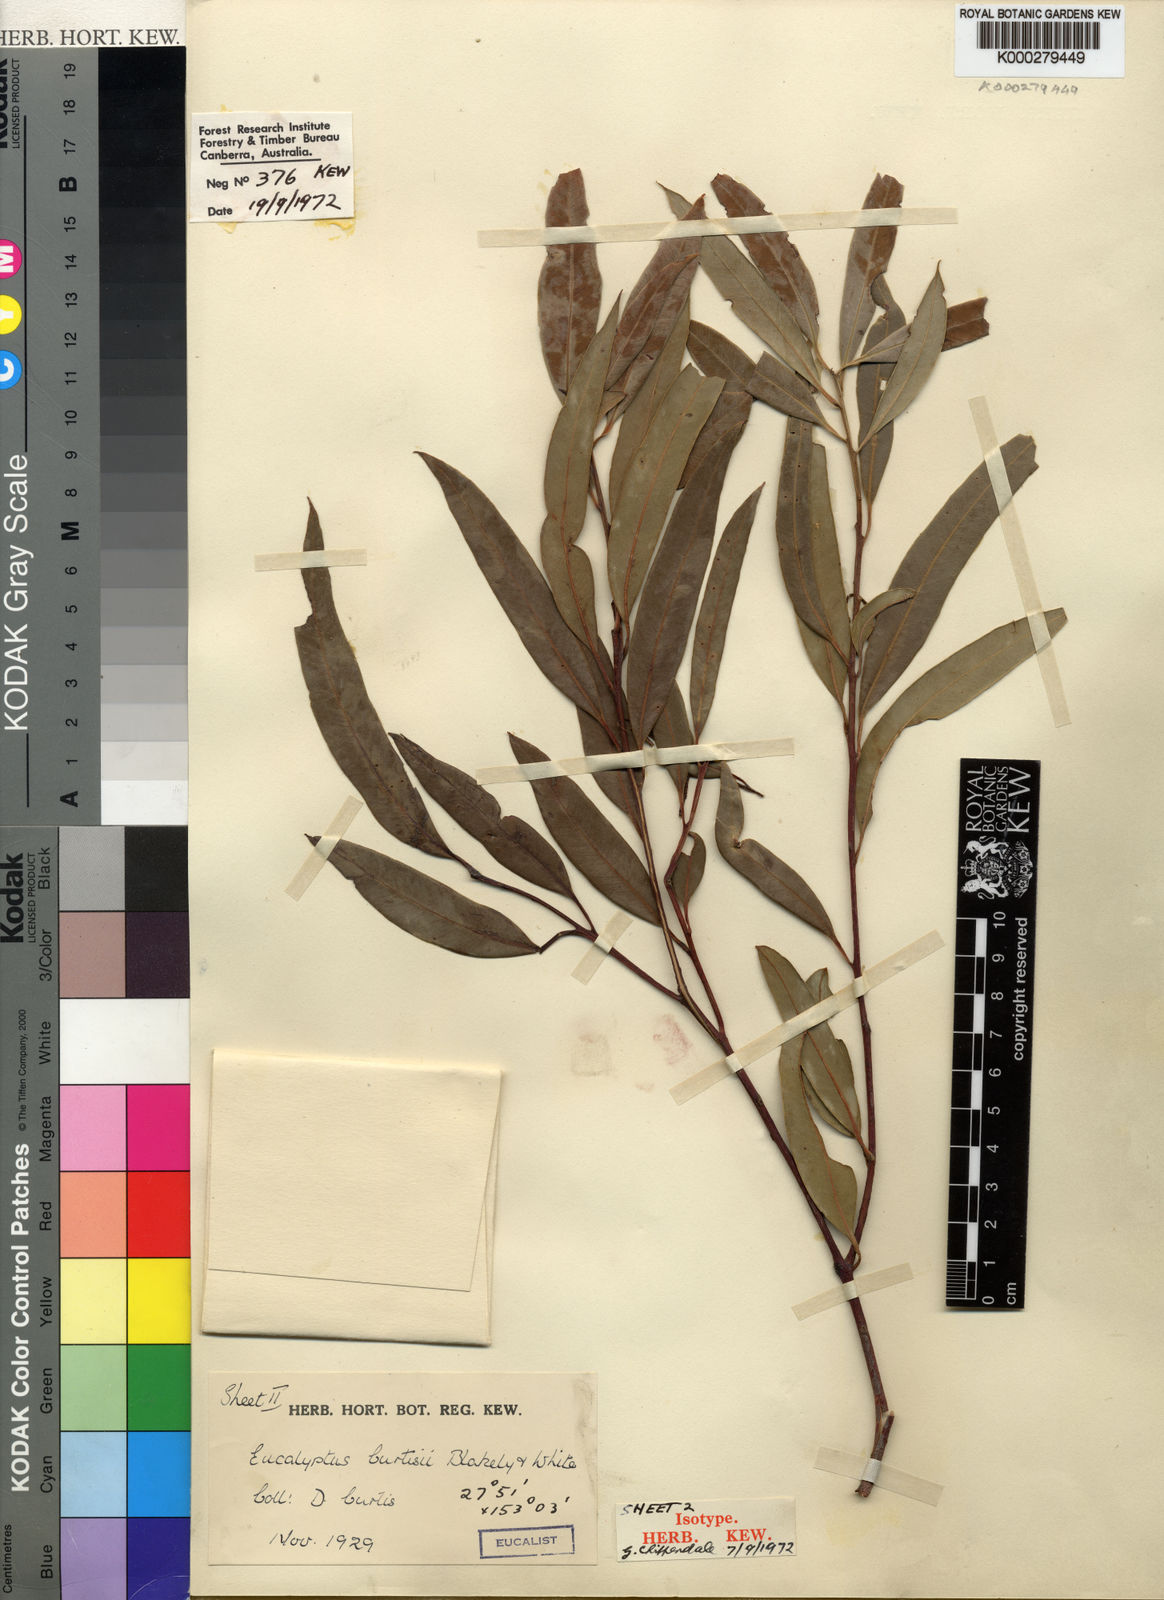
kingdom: Plantae
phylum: Tracheophyta
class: Magnoliopsida
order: Myrtales
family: Myrtaceae
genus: Eucalyptus
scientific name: Eucalyptus curtisii
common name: Plunkett mallee
